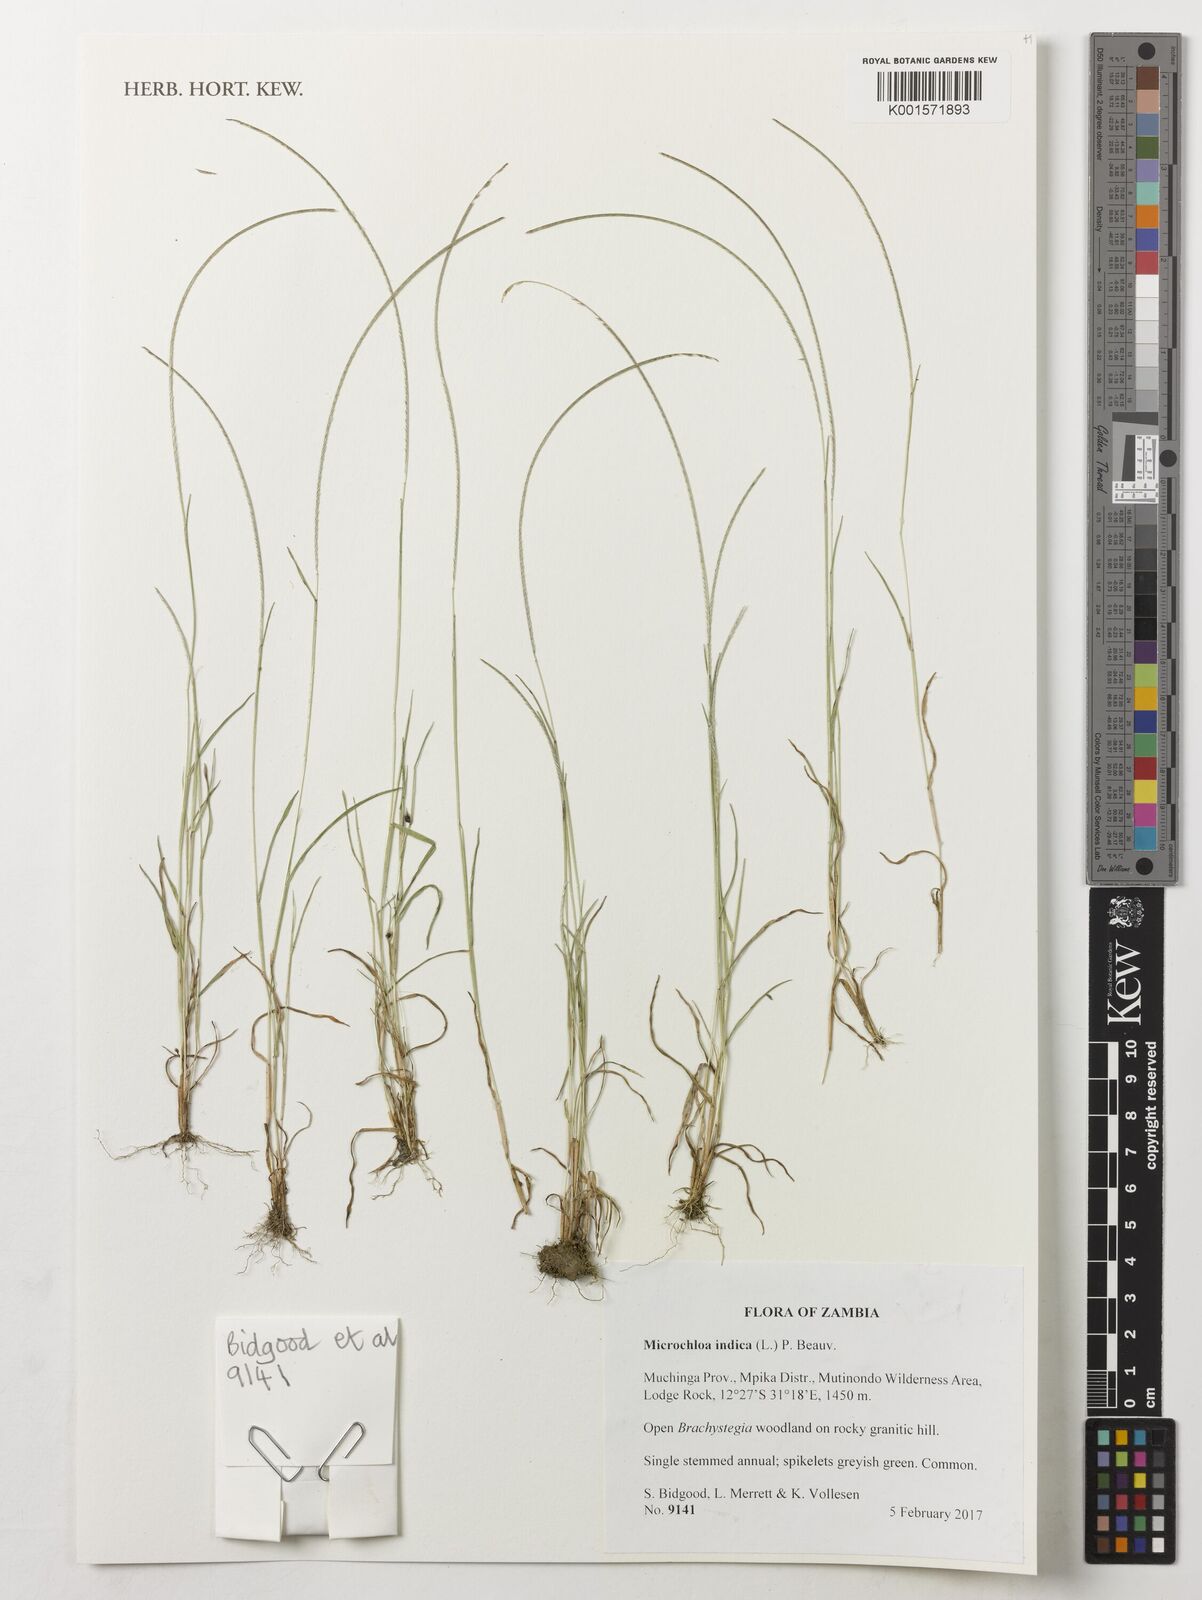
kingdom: Plantae
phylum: Tracheophyta
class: Liliopsida
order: Poales
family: Poaceae
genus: Microchloa
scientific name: Microchloa indica
